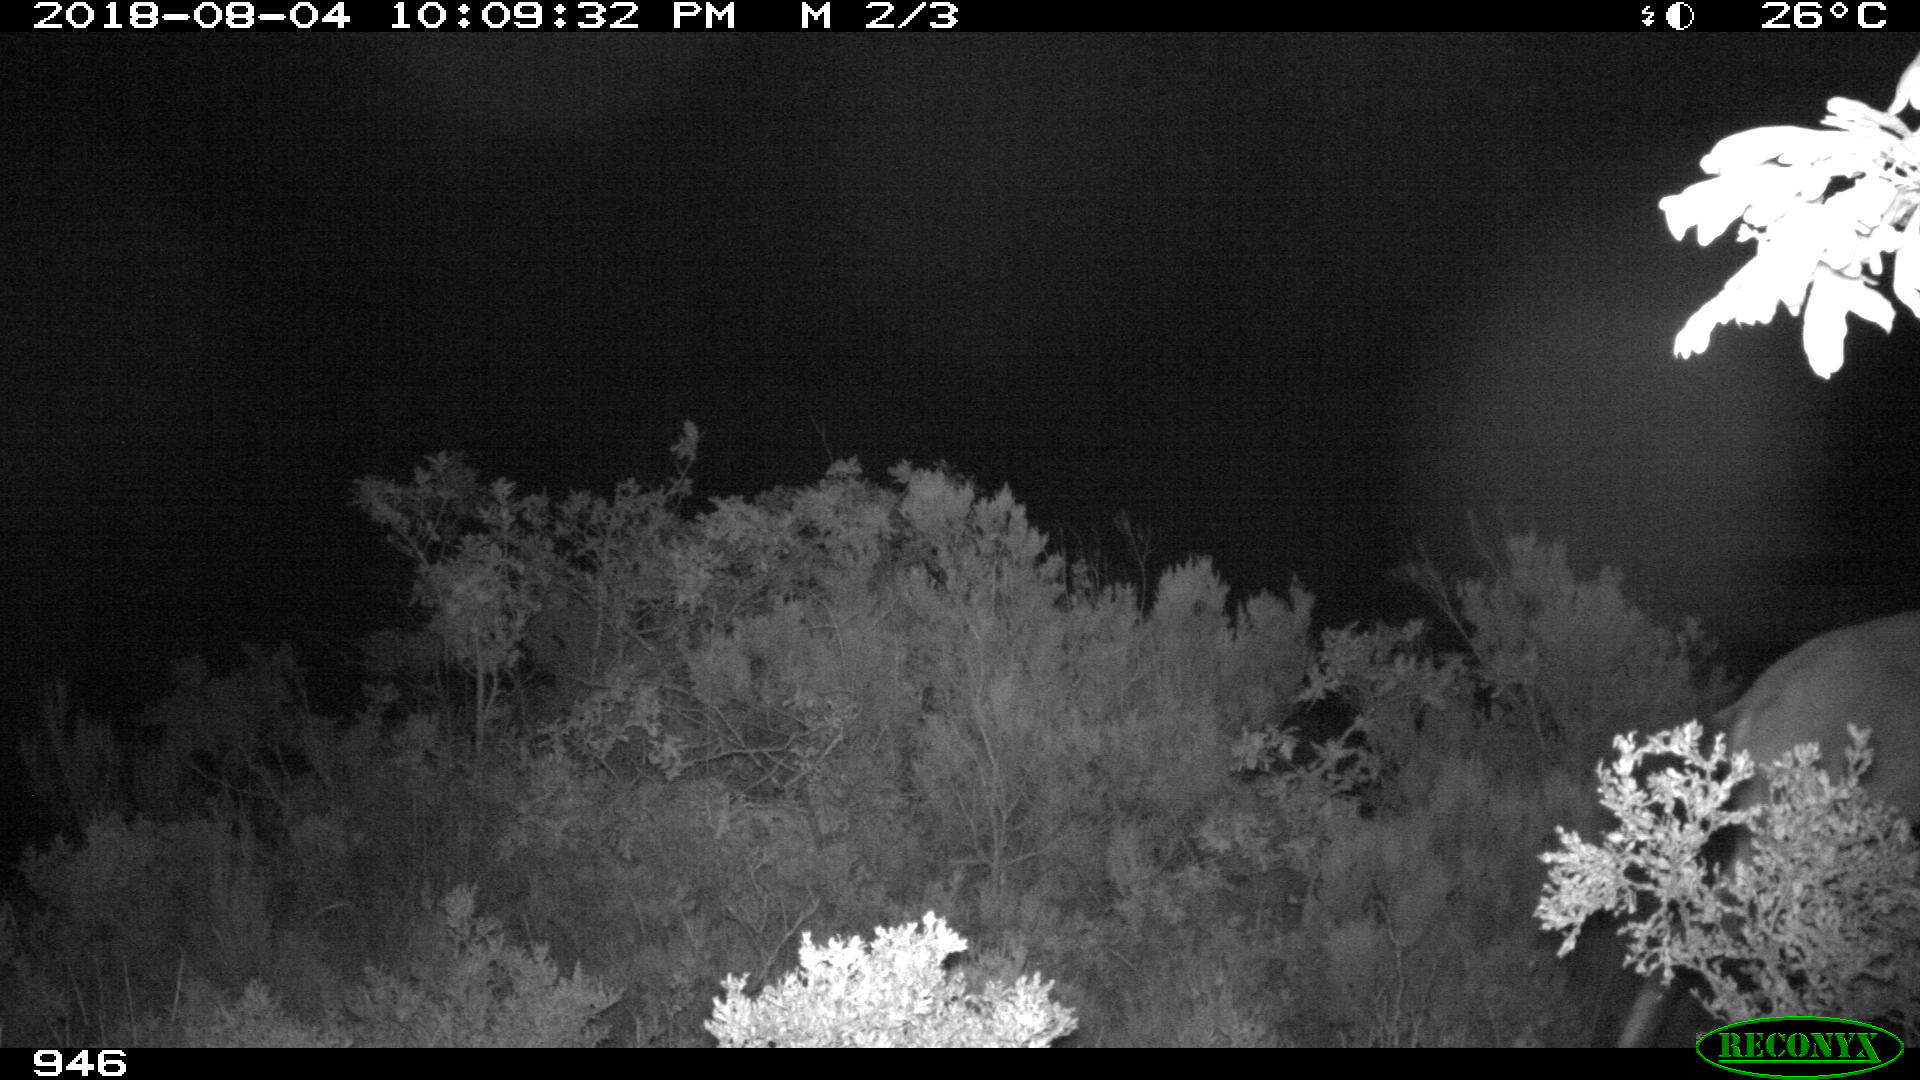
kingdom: Animalia
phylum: Chordata
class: Mammalia
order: Artiodactyla
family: Bovidae
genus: Capra
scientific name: Capra pyrenaica
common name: Spanish ibex
